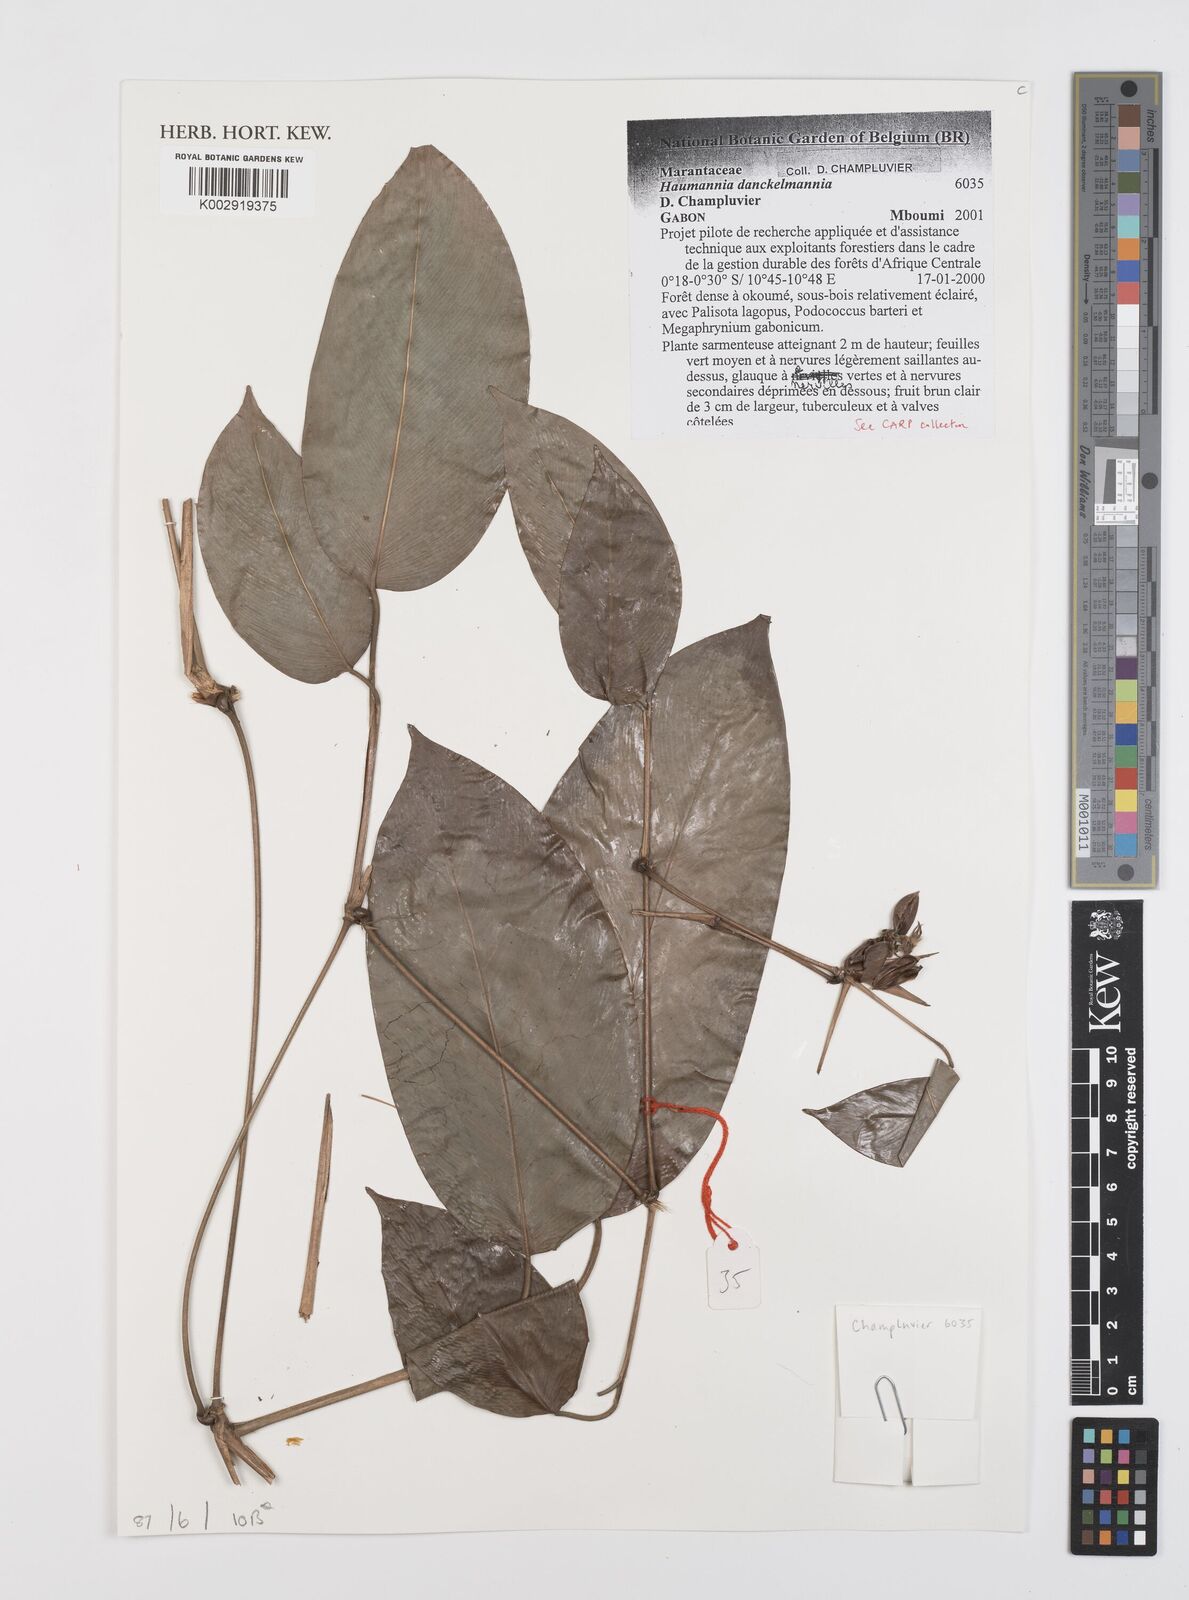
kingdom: Plantae
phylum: Tracheophyta
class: Liliopsida
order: Zingiberales
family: Marantaceae
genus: Haumania
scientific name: Haumania danckelmaniana
